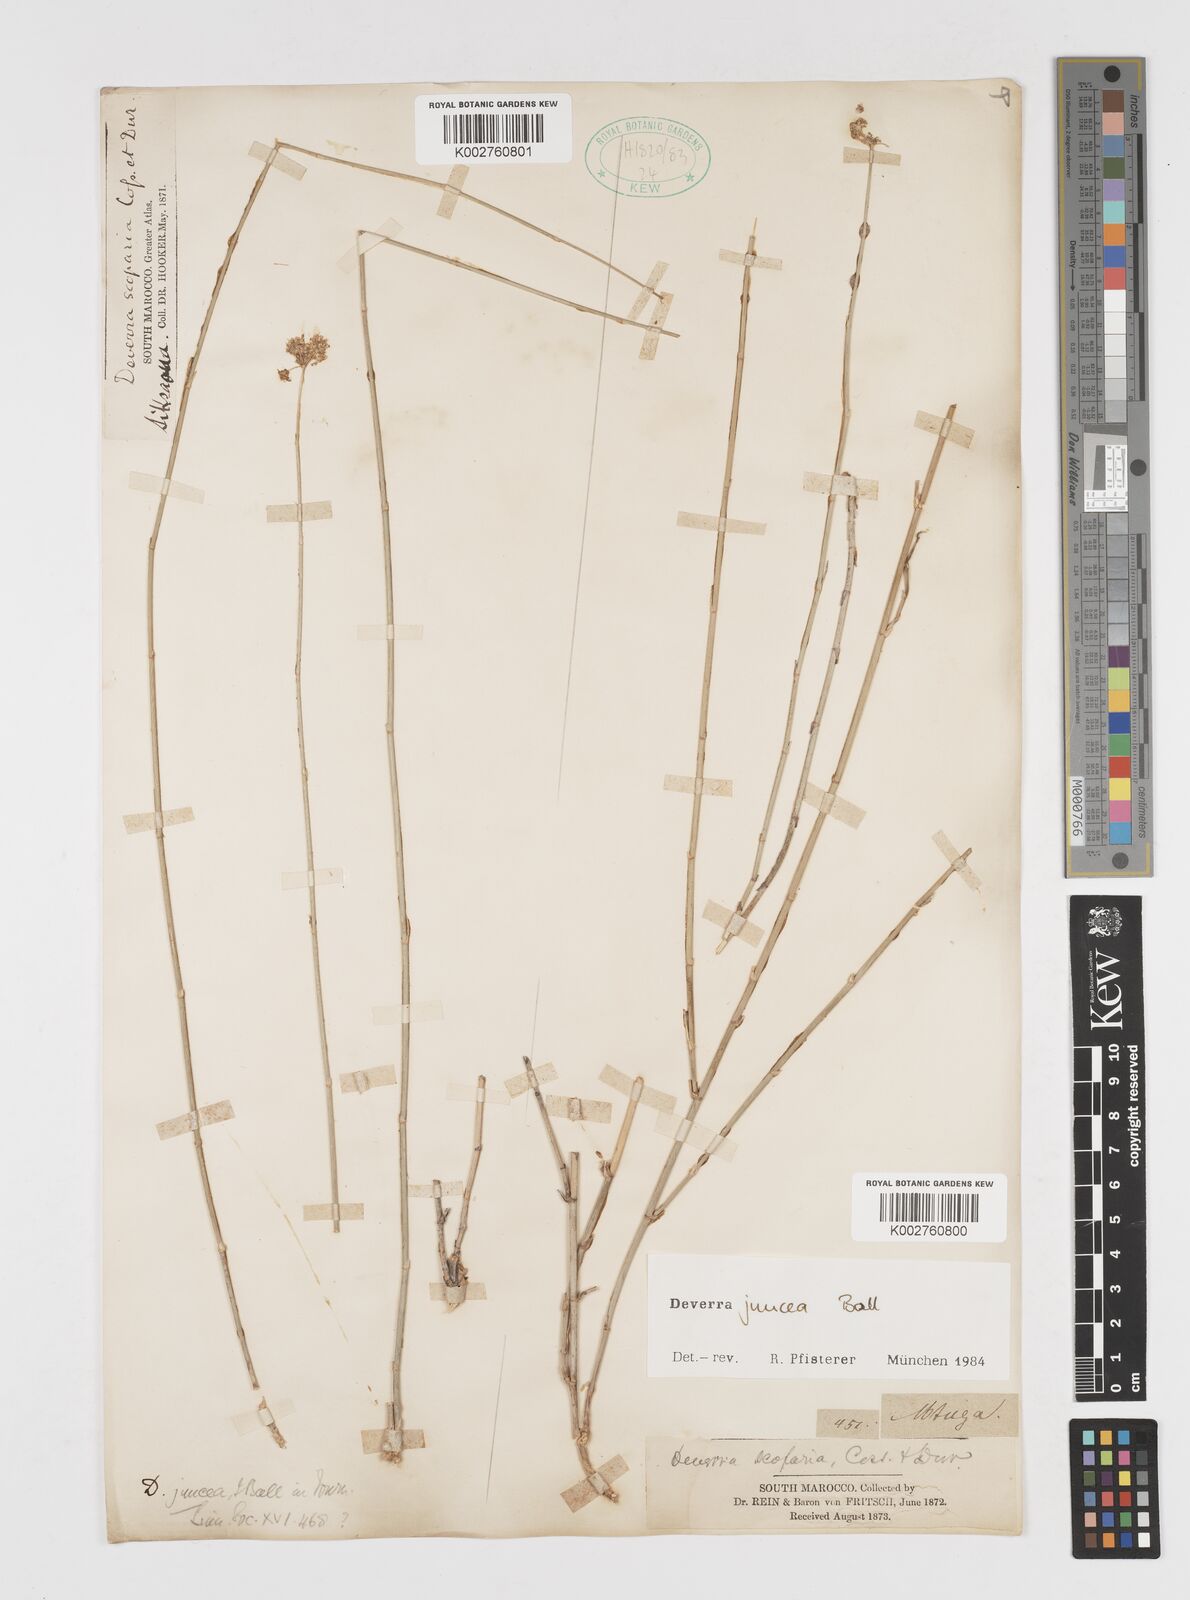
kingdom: Plantae
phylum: Tracheophyta
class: Magnoliopsida
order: Apiales
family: Apiaceae
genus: Deverra
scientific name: Deverra juncea
